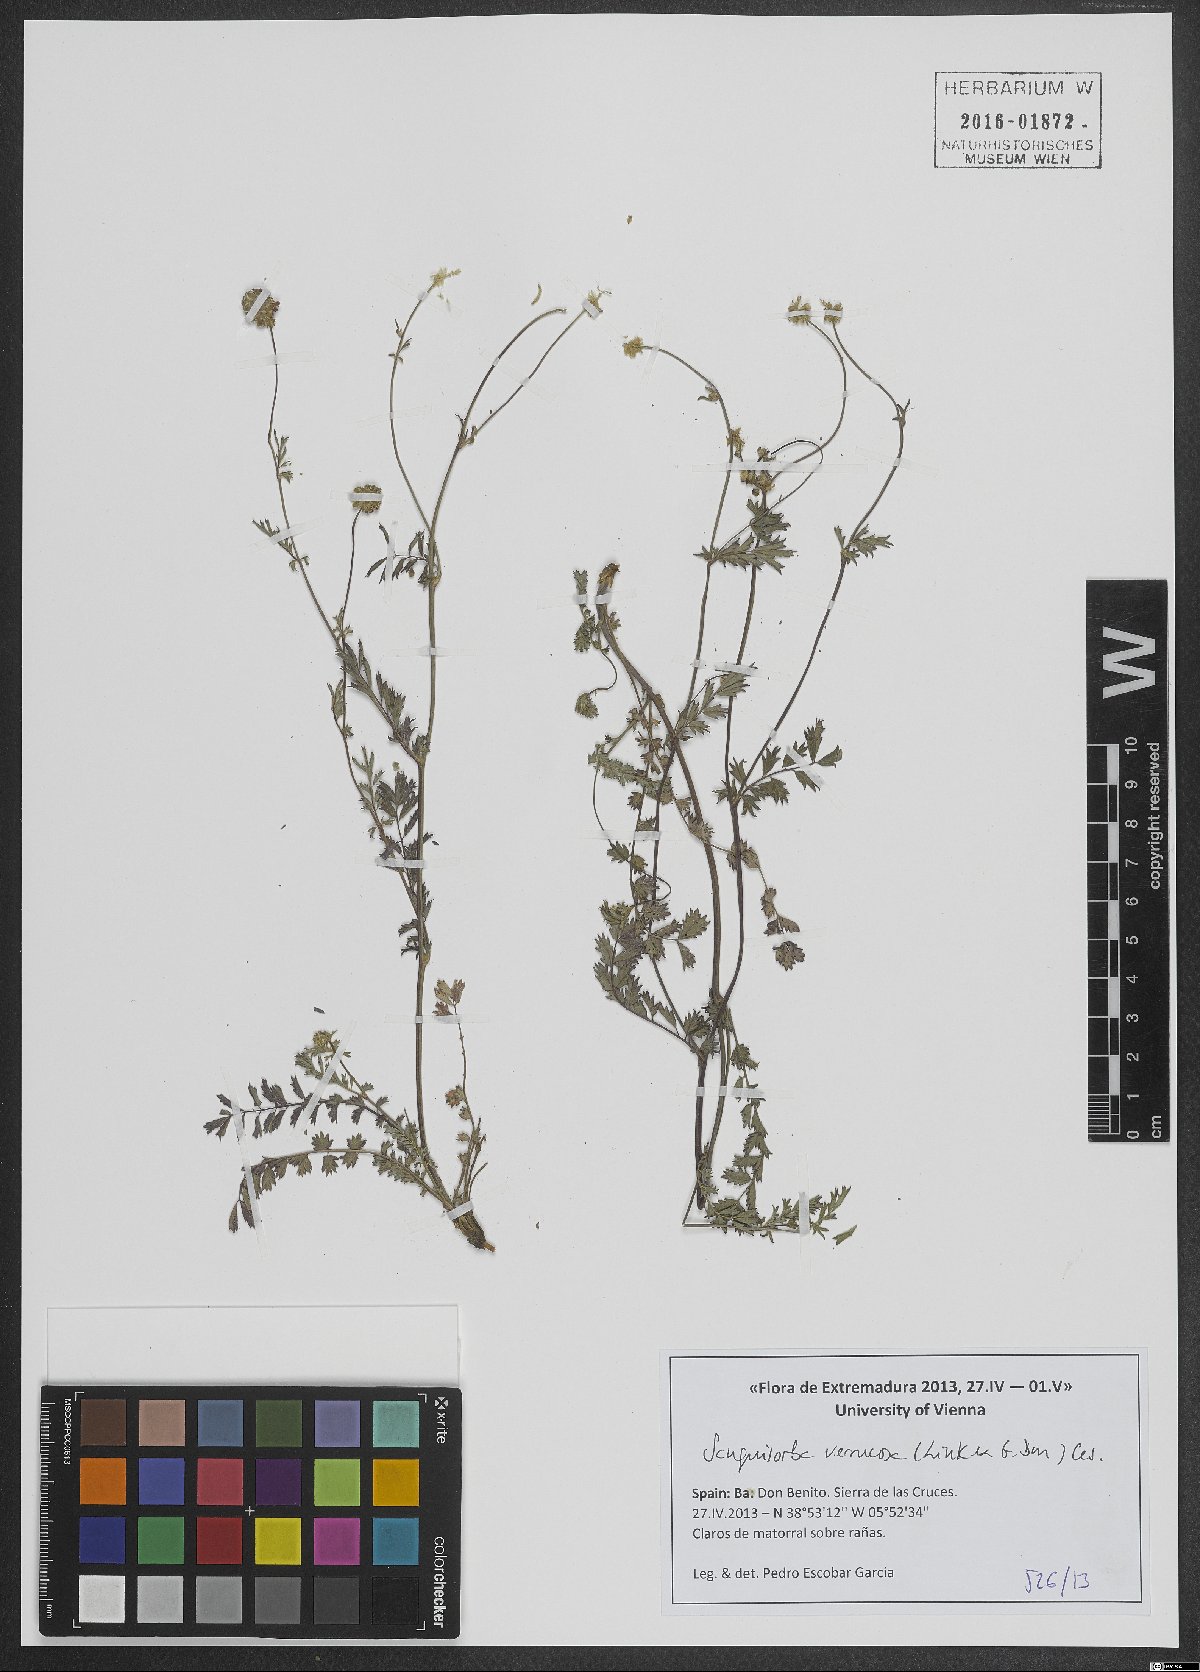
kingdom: Plantae
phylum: Tracheophyta
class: Magnoliopsida
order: Rosales
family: Rosaceae
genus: Poterium
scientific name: Poterium verrucosum
